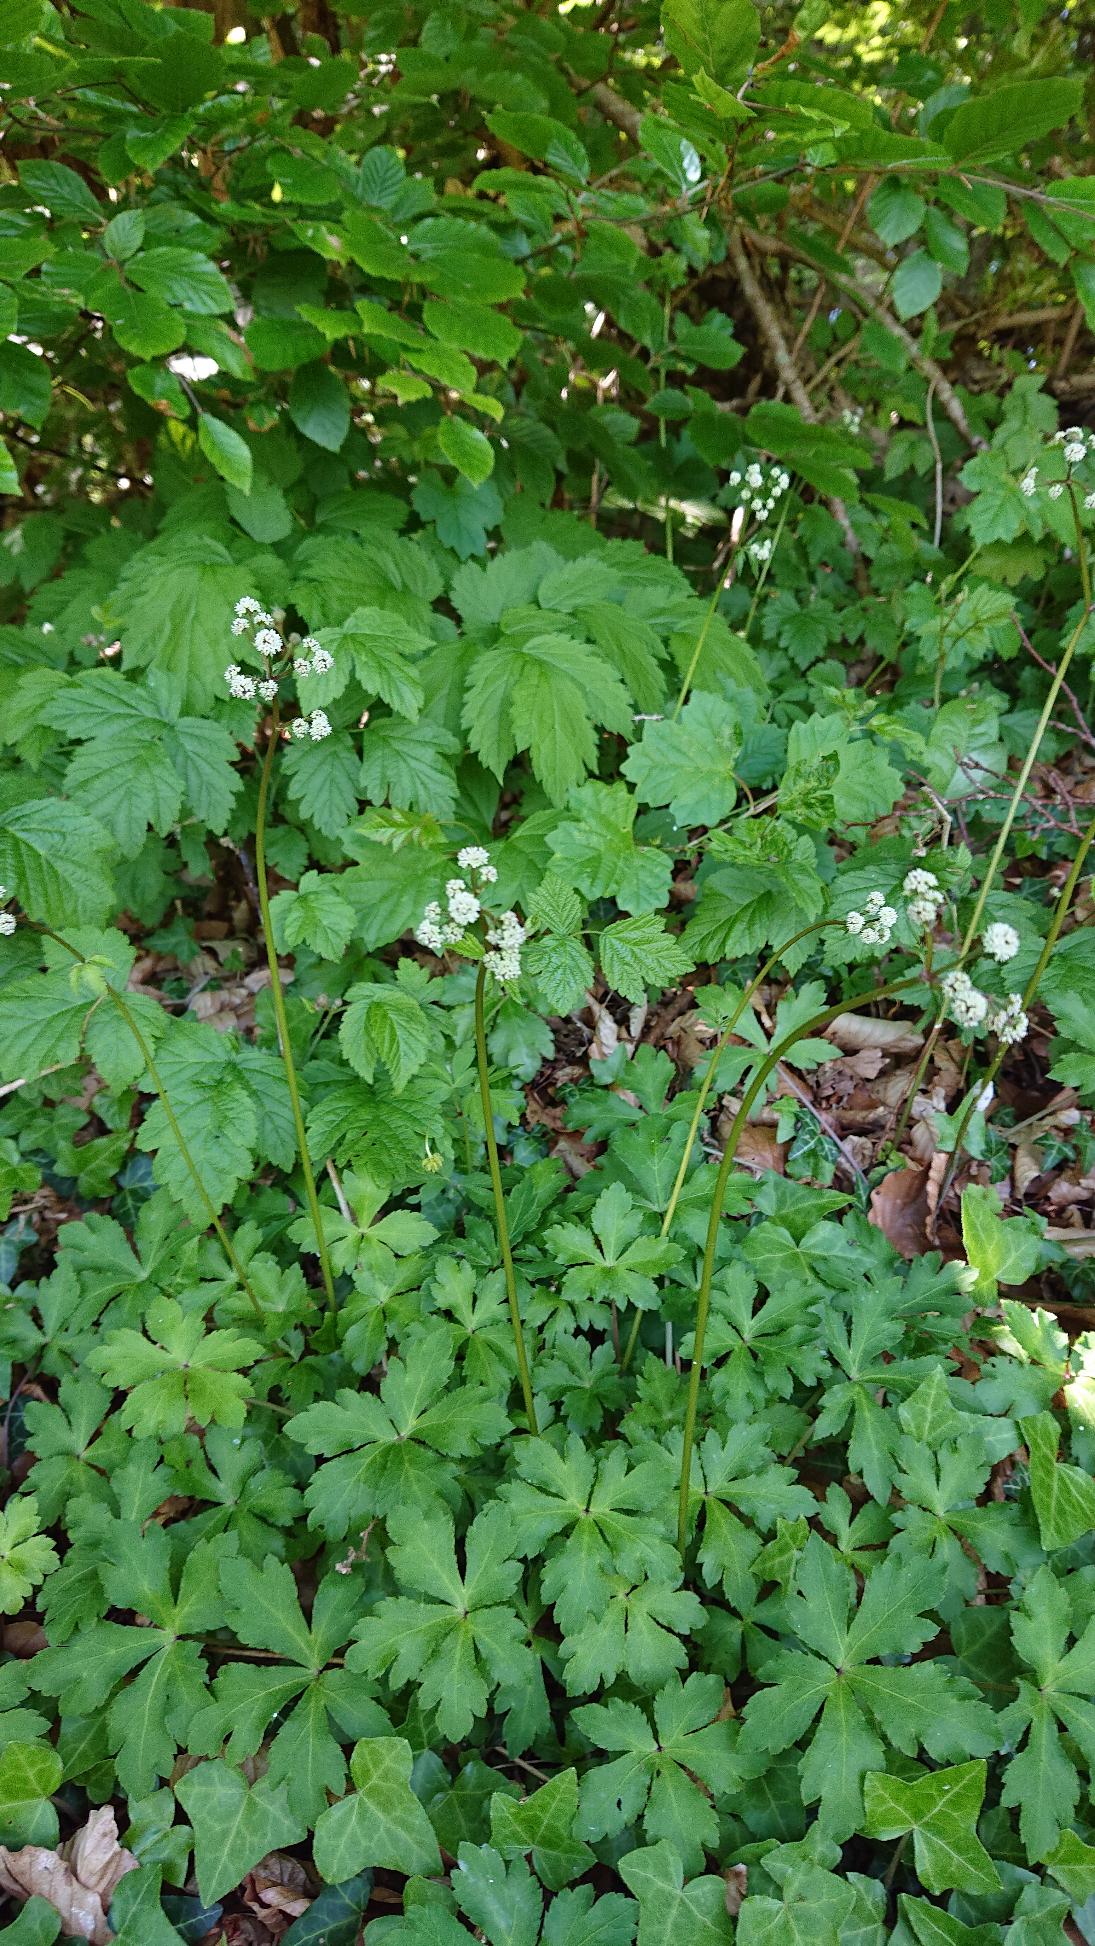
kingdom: Plantae
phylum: Tracheophyta
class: Magnoliopsida
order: Apiales
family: Apiaceae
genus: Sanicula
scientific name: Sanicula europaea
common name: Sanikel
